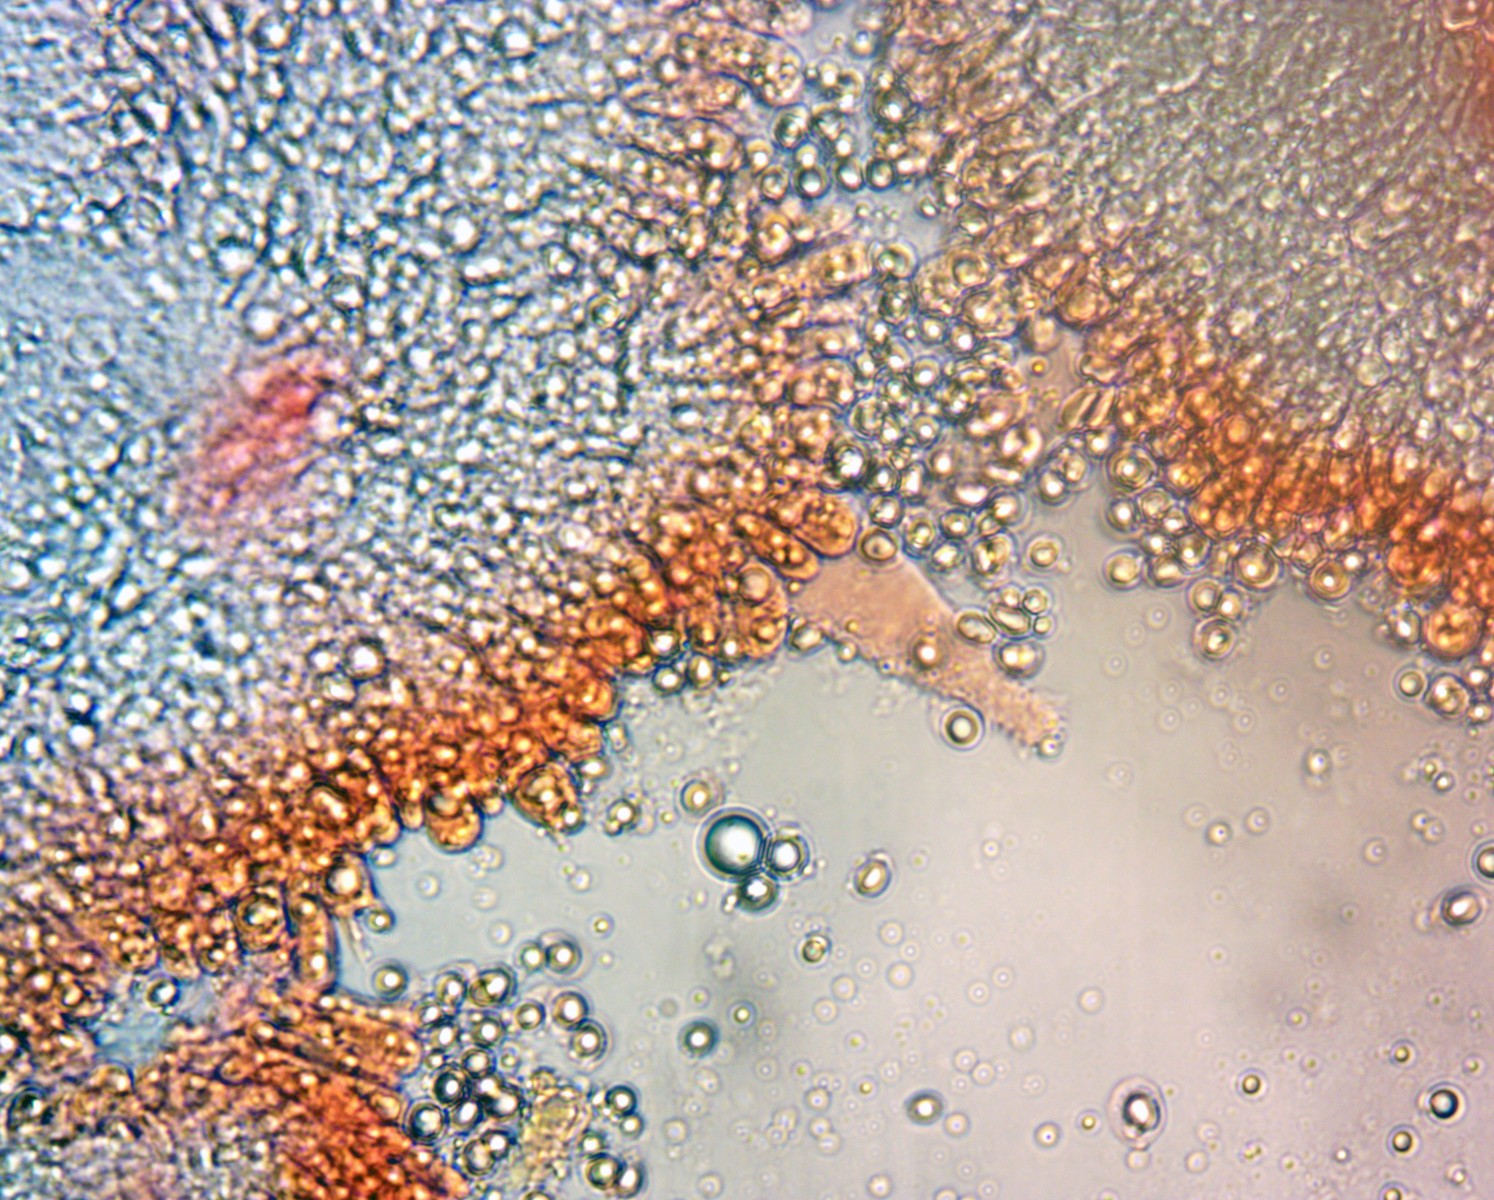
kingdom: Fungi
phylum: Basidiomycota
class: Agaricomycetes
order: Agaricales
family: Mycenaceae
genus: Mycena
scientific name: Mycena silvae-pristinae
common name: naturskovs-huesvamp
